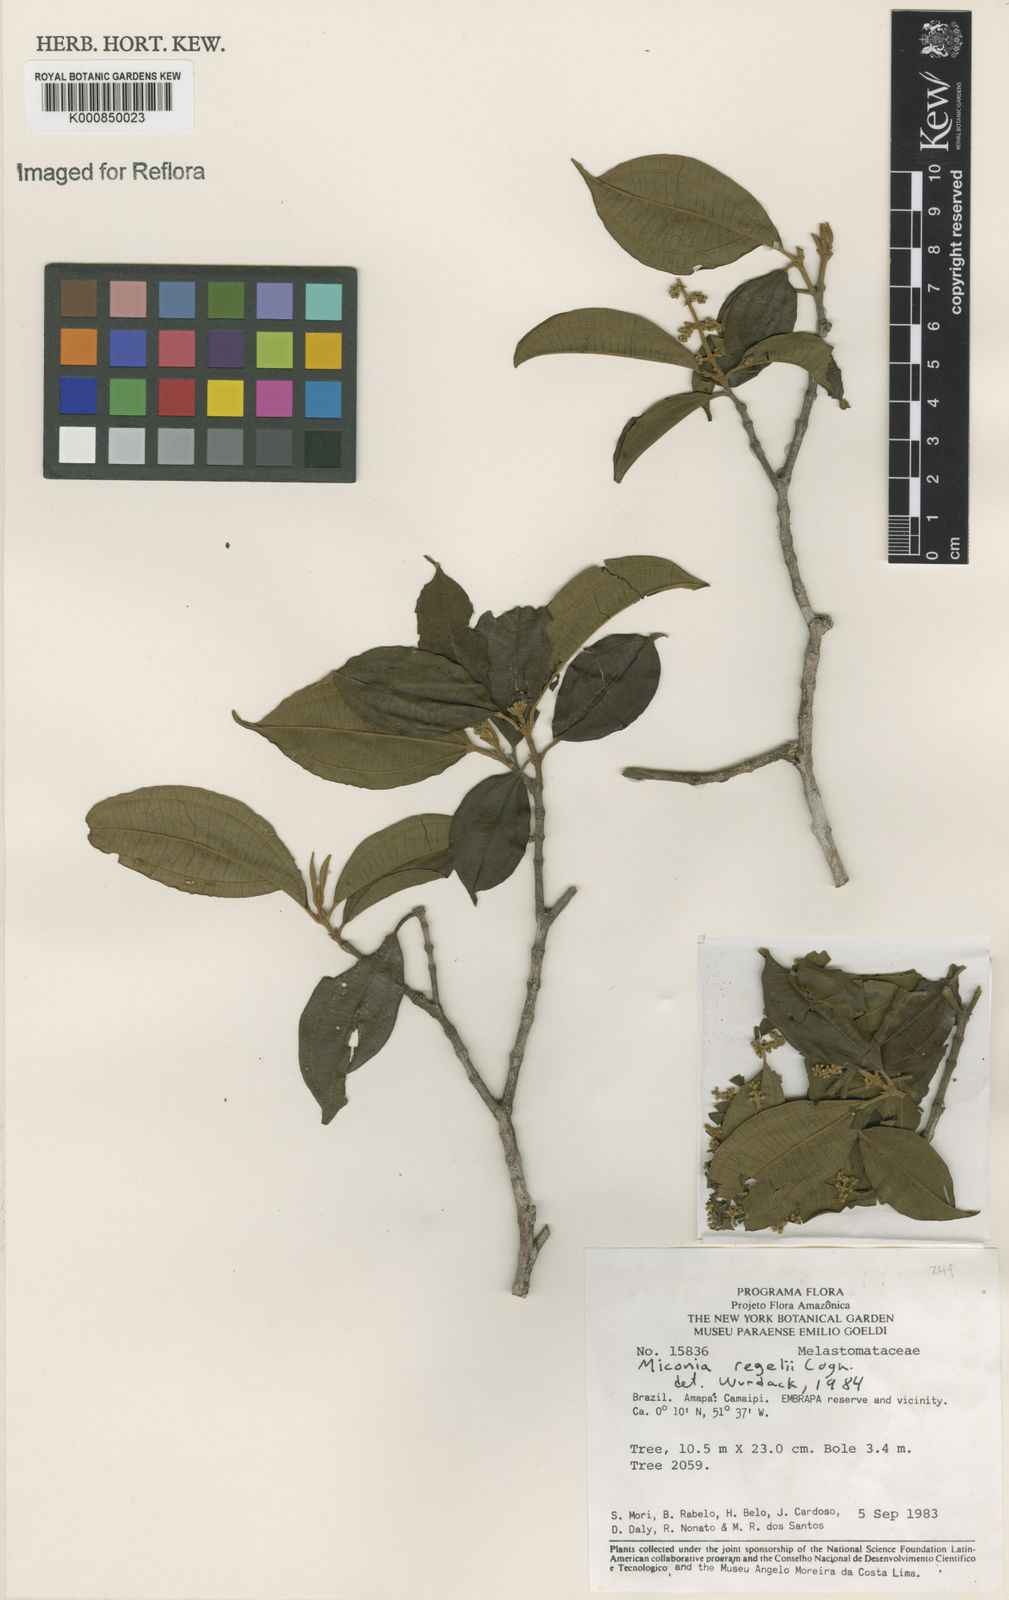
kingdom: Plantae
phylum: Tracheophyta
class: Magnoliopsida
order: Myrtales
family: Melastomataceae
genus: Miconia
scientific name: Miconia regelii
